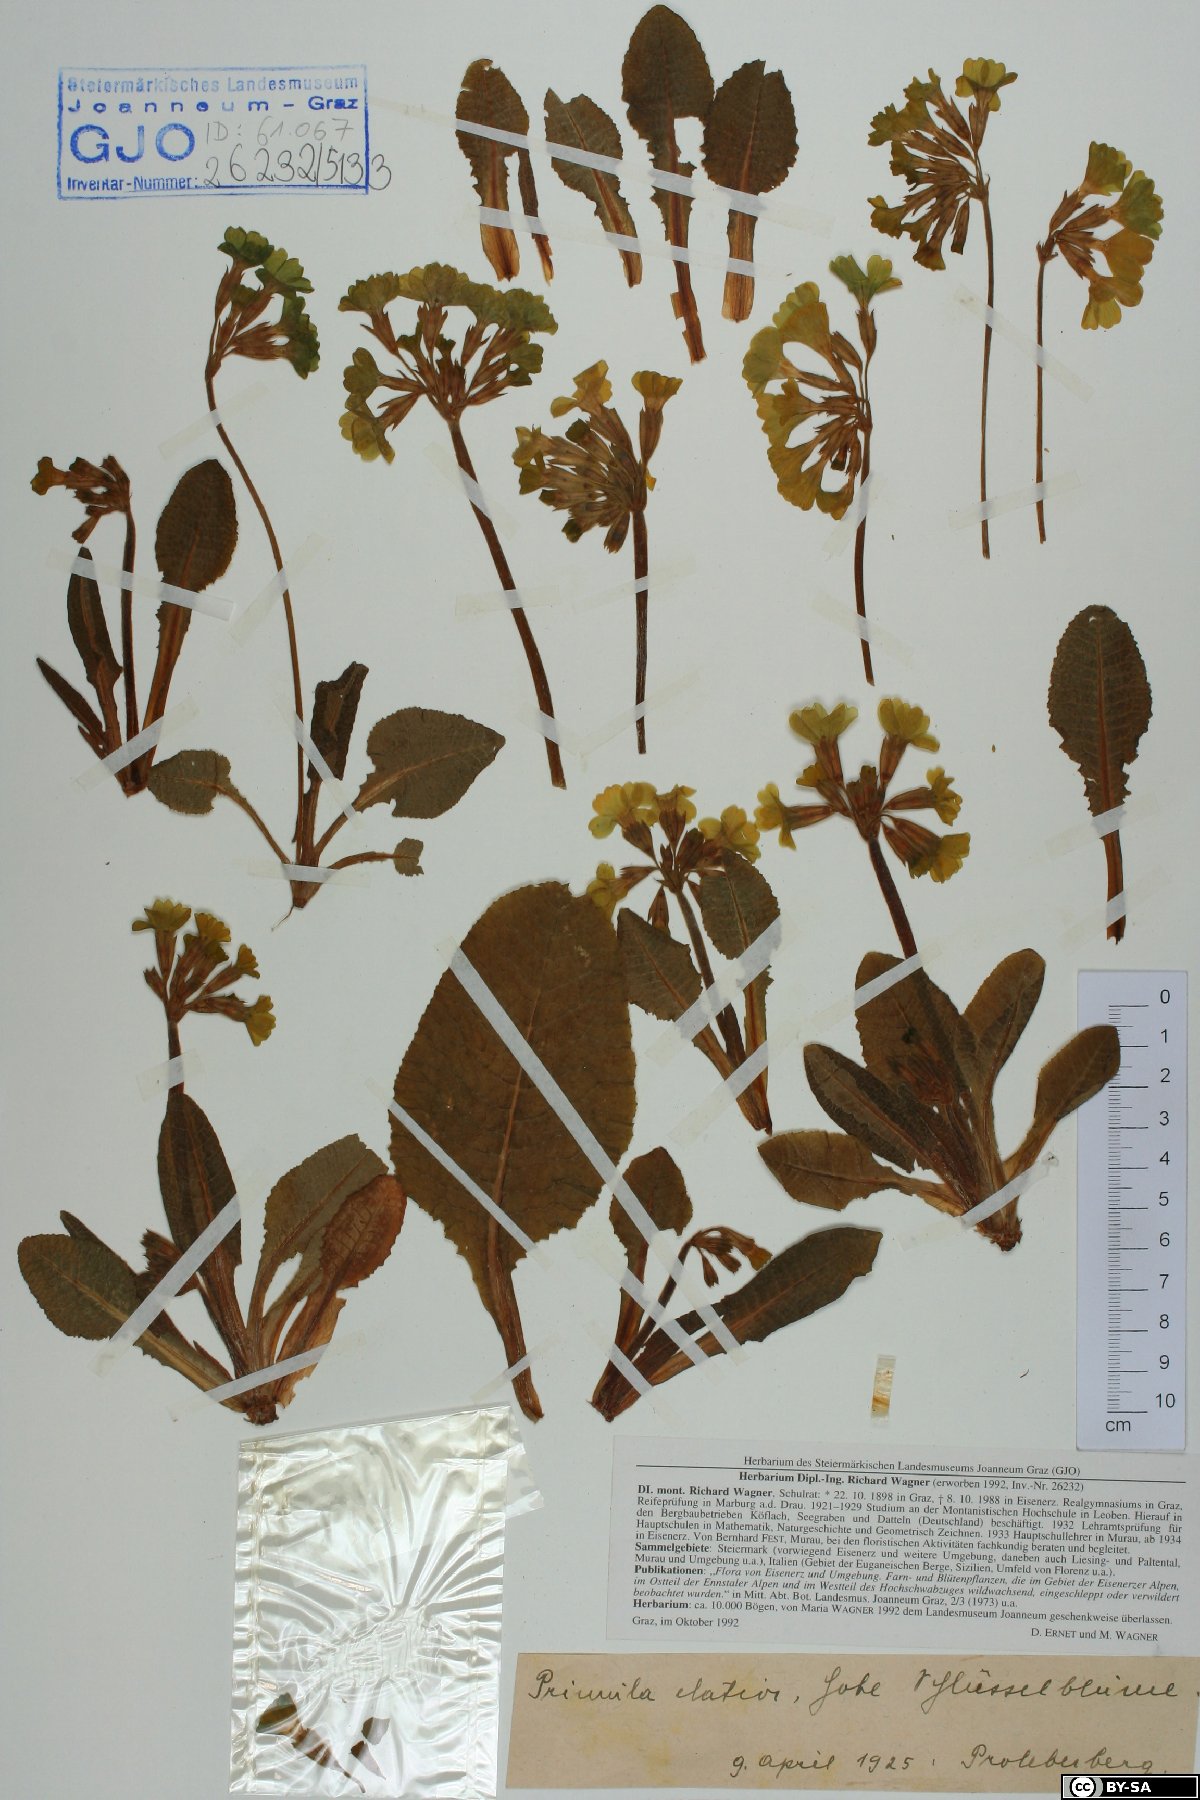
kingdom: Plantae
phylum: Tracheophyta
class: Magnoliopsida
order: Ericales
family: Primulaceae
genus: Primula
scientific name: Primula elatior
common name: Oxlip
